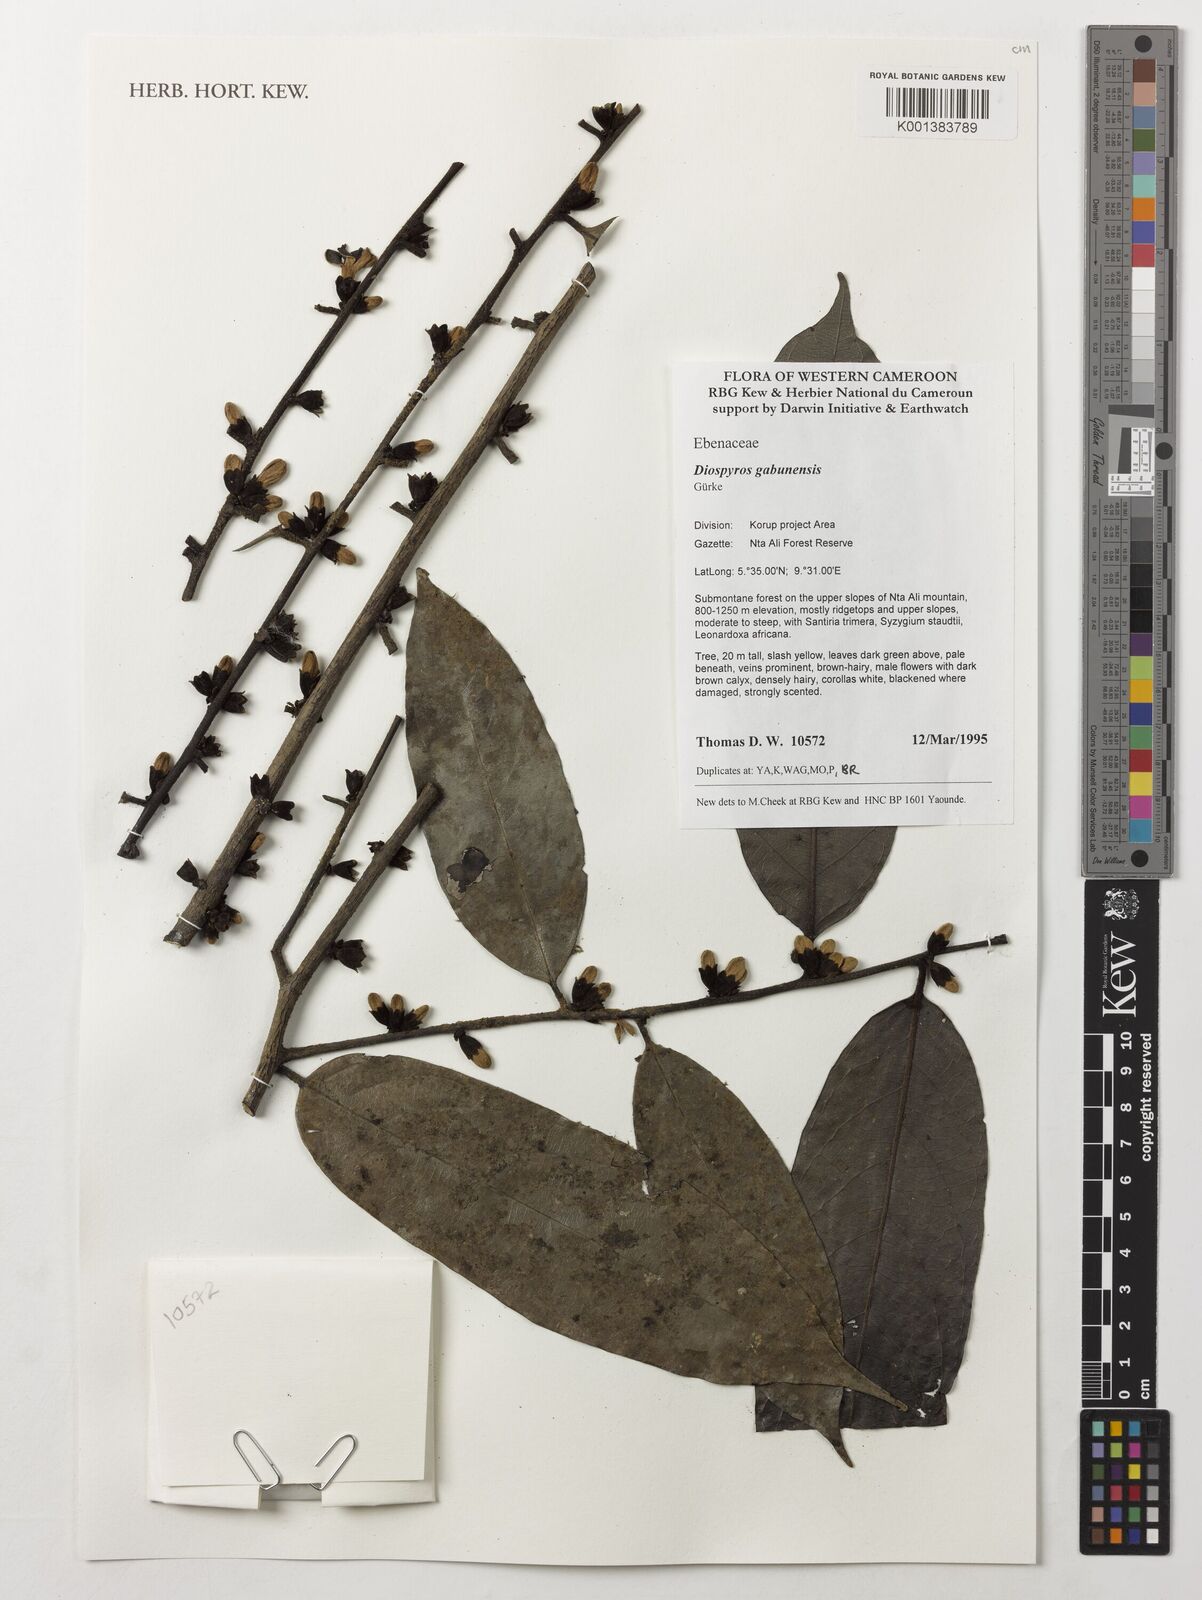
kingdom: Plantae
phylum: Tracheophyta
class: Magnoliopsida
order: Ericales
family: Ebenaceae
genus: Diospyros
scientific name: Diospyros gabunensis
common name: Flint bark tree
